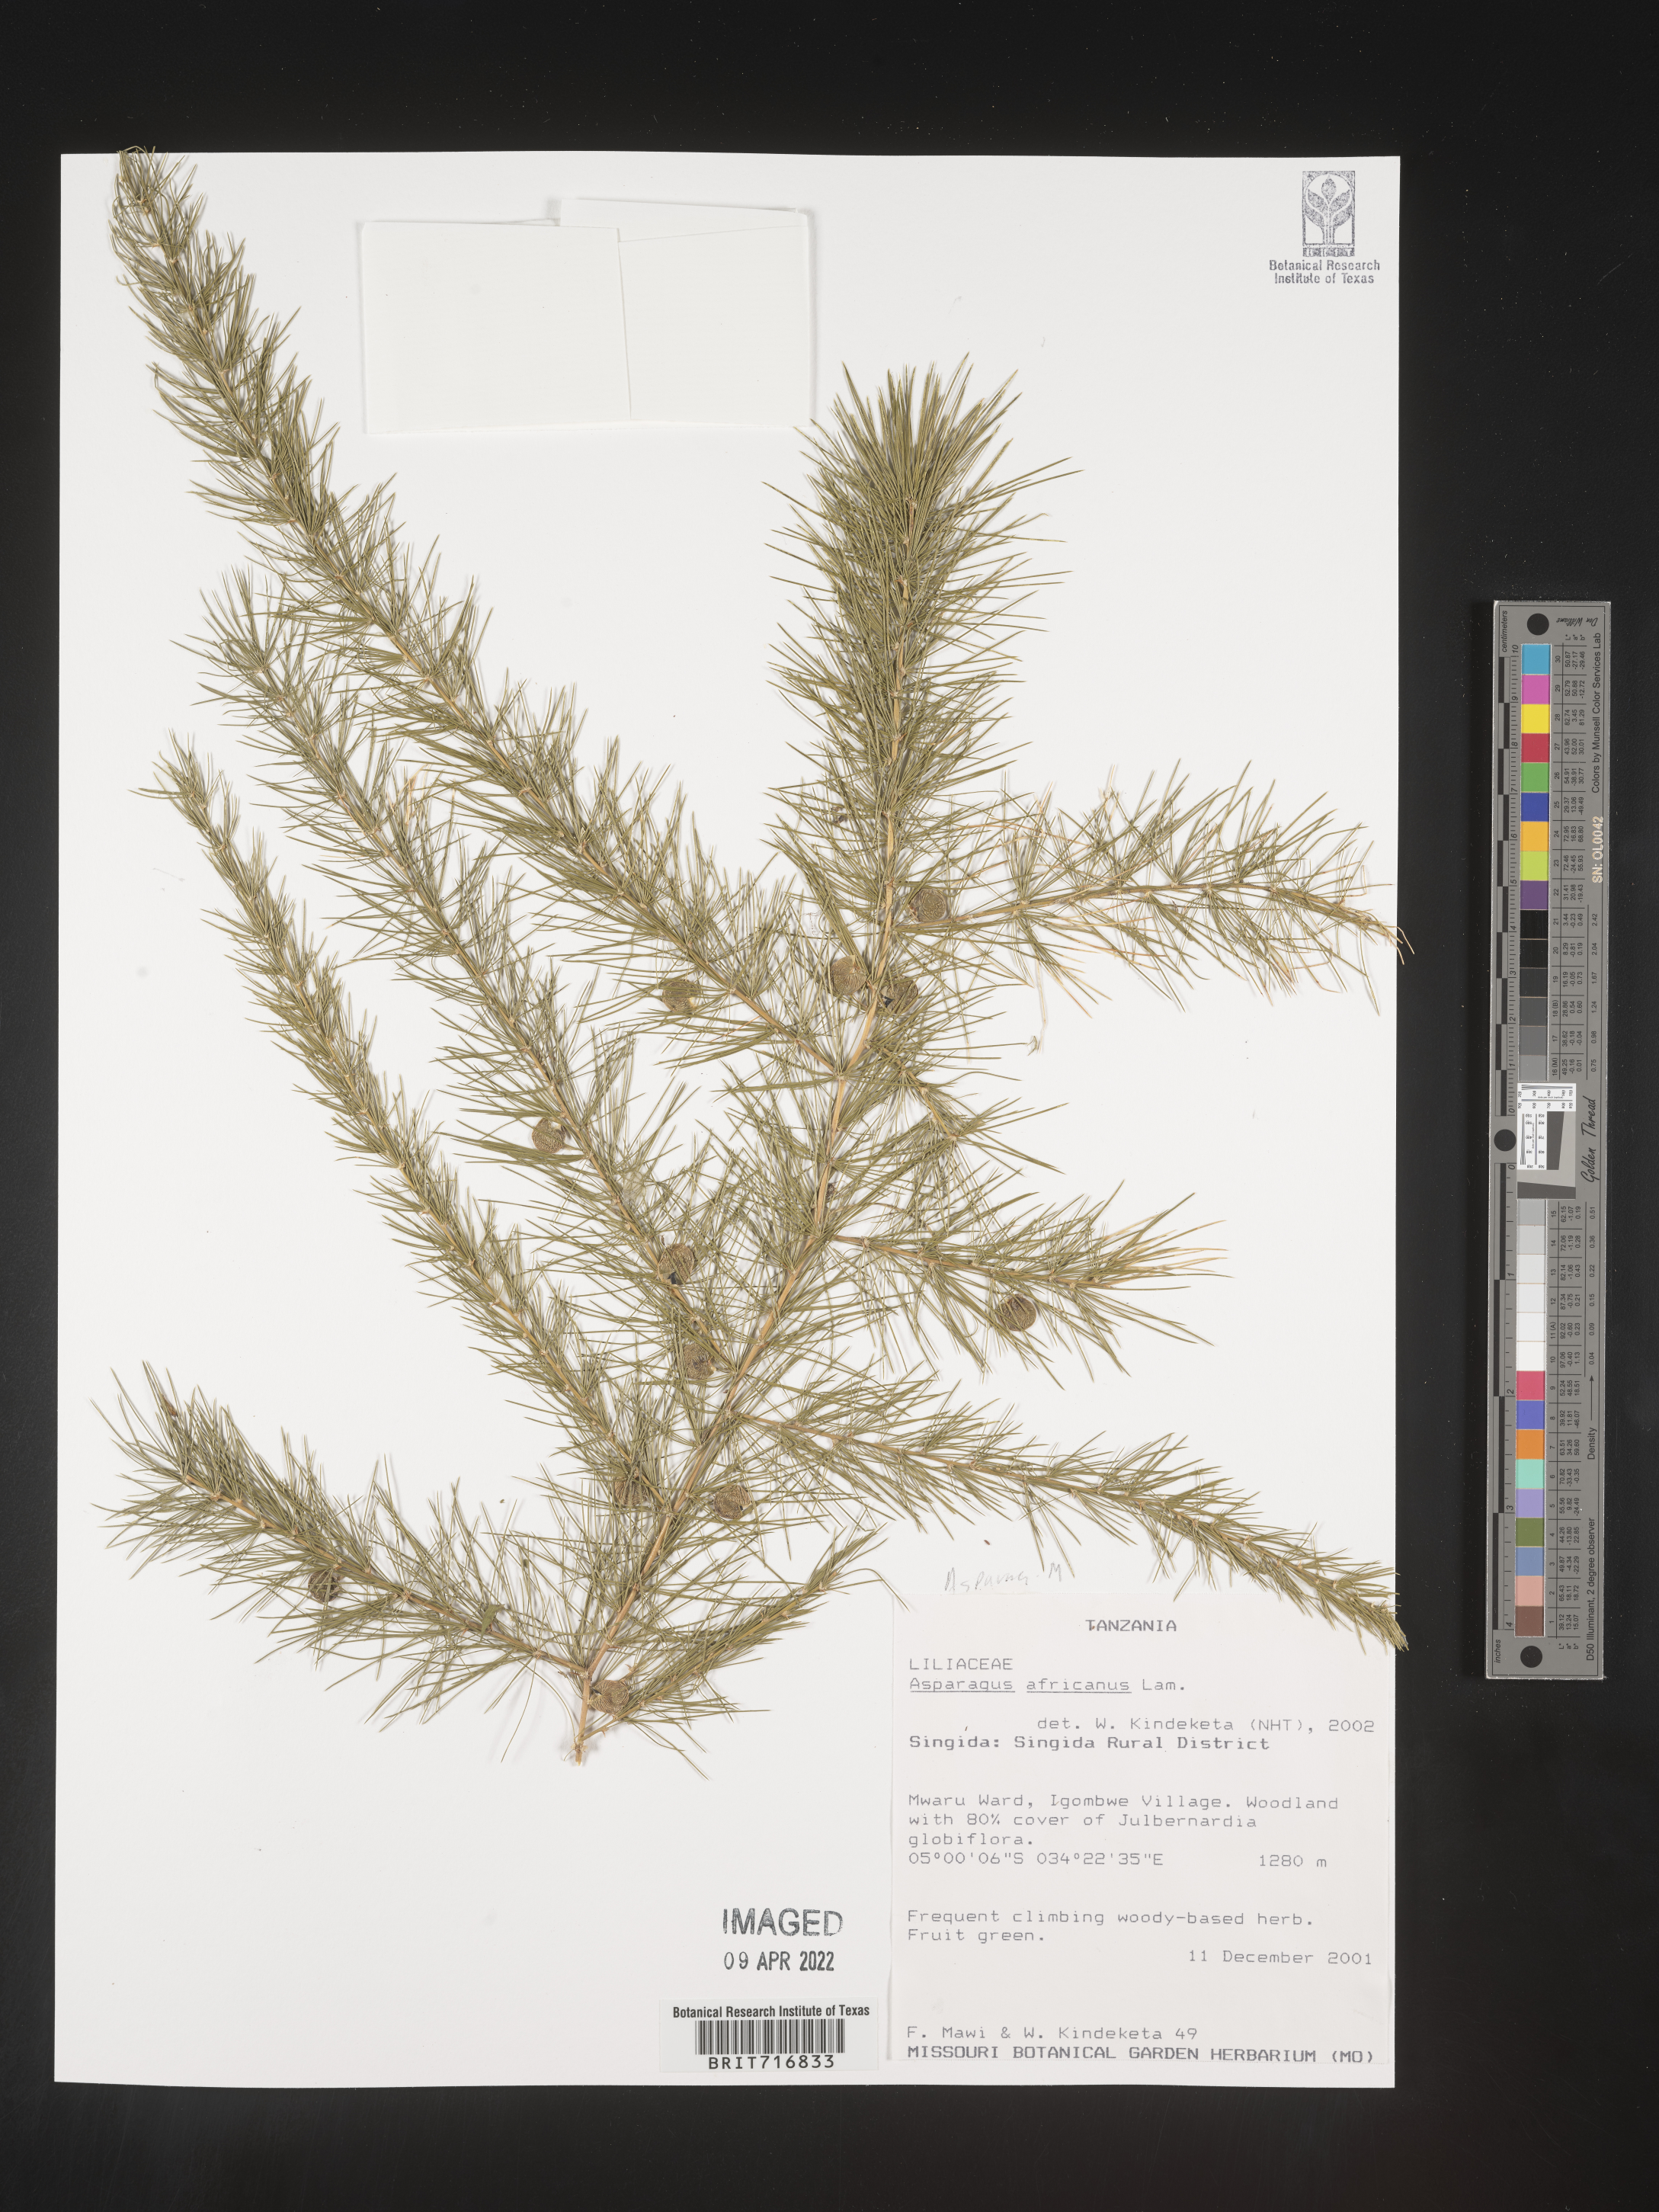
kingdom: Plantae
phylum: Tracheophyta
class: Liliopsida
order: Asparagales
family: Asparagaceae
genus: Asparagus
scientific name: Asparagus
